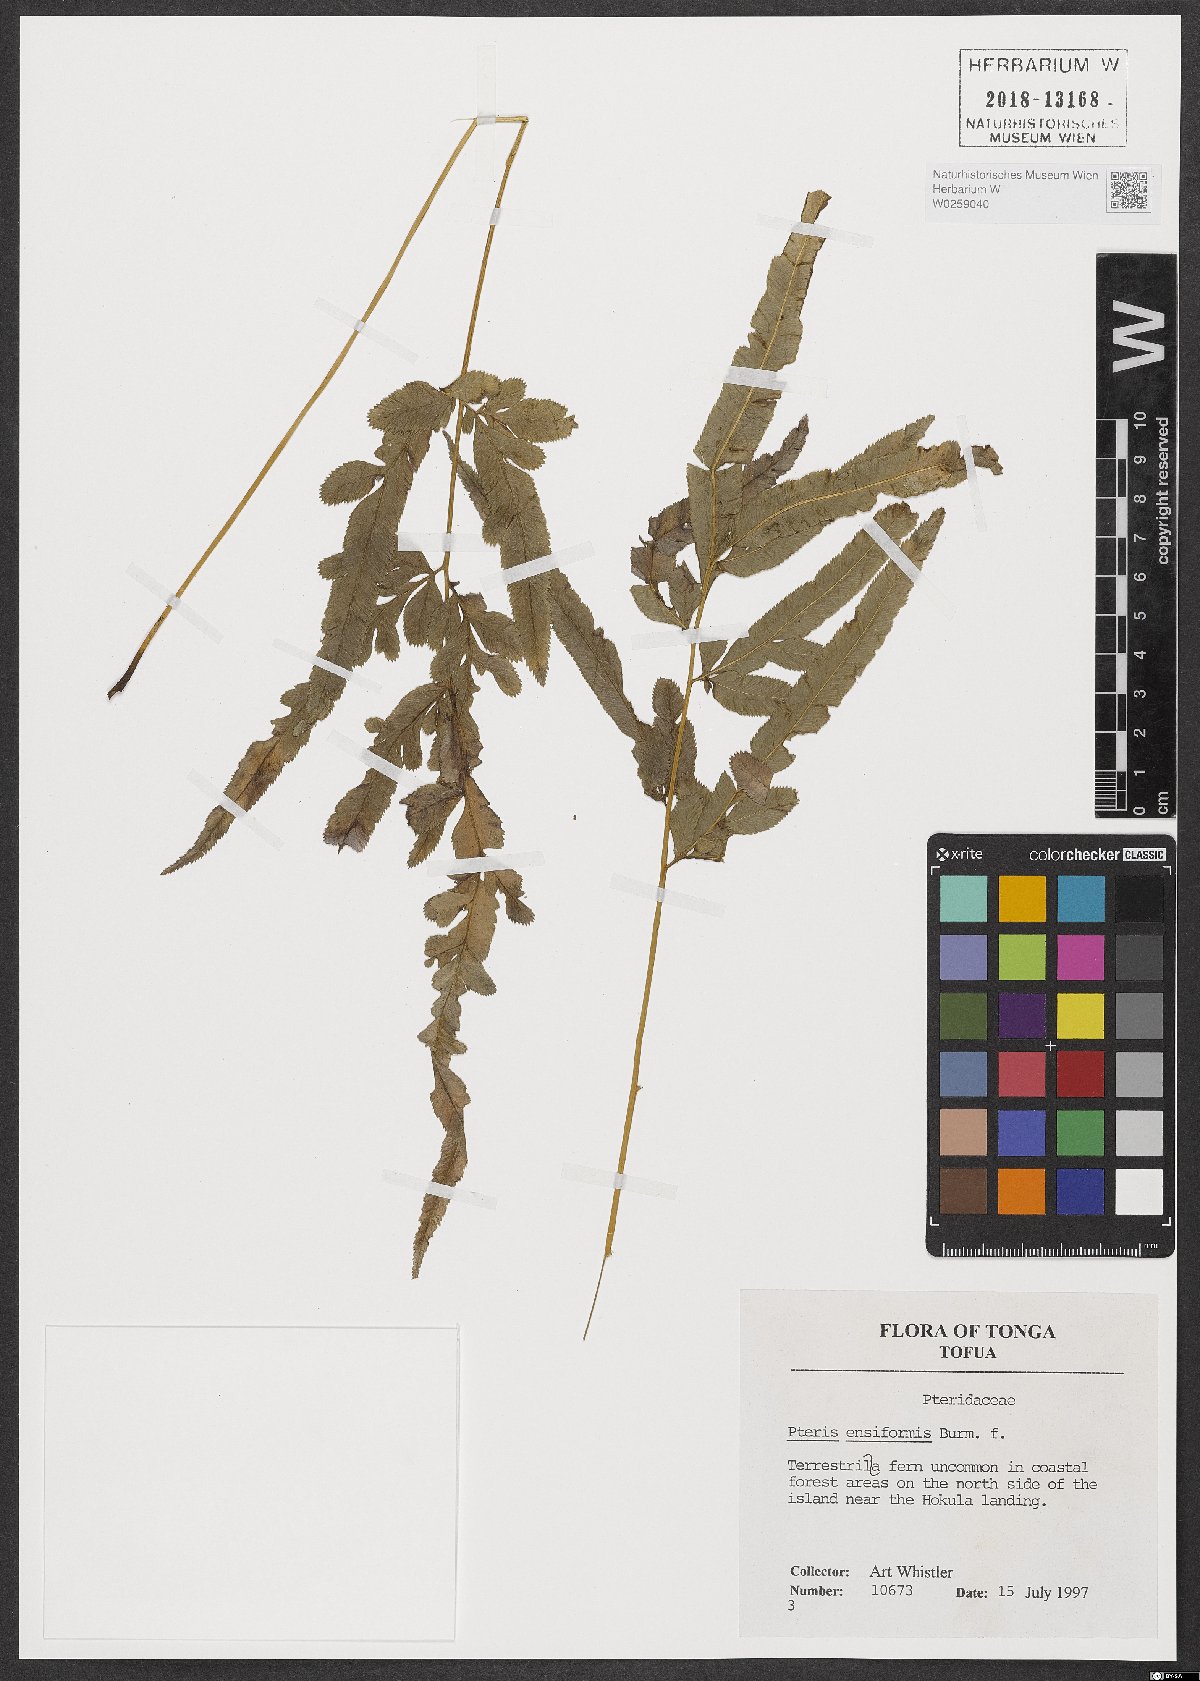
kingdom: Plantae
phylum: Tracheophyta
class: Polypodiopsida
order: Polypodiales
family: Pteridaceae
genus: Pteris
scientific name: Pteris ensiformis
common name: Sword brake
